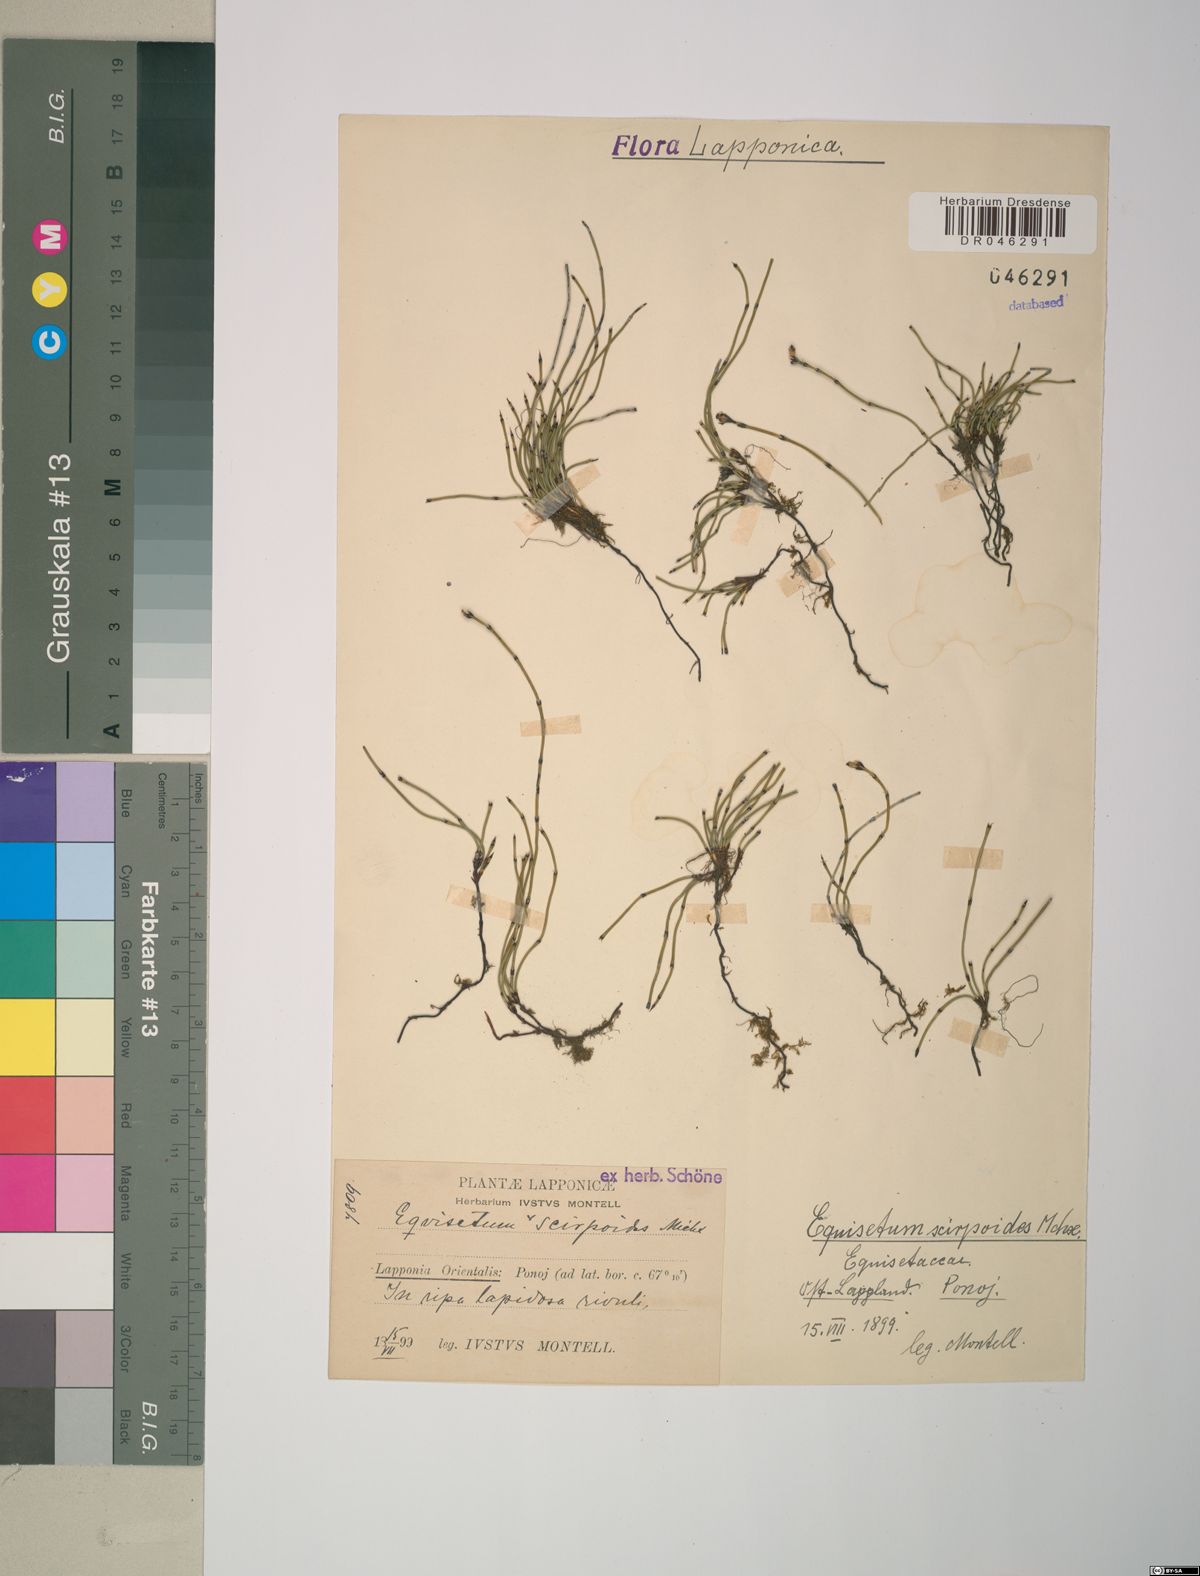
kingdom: Plantae
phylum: Tracheophyta
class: Polypodiopsida
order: Equisetales
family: Equisetaceae
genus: Equisetum
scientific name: Equisetum scirpoides
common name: Delicate horsetail
